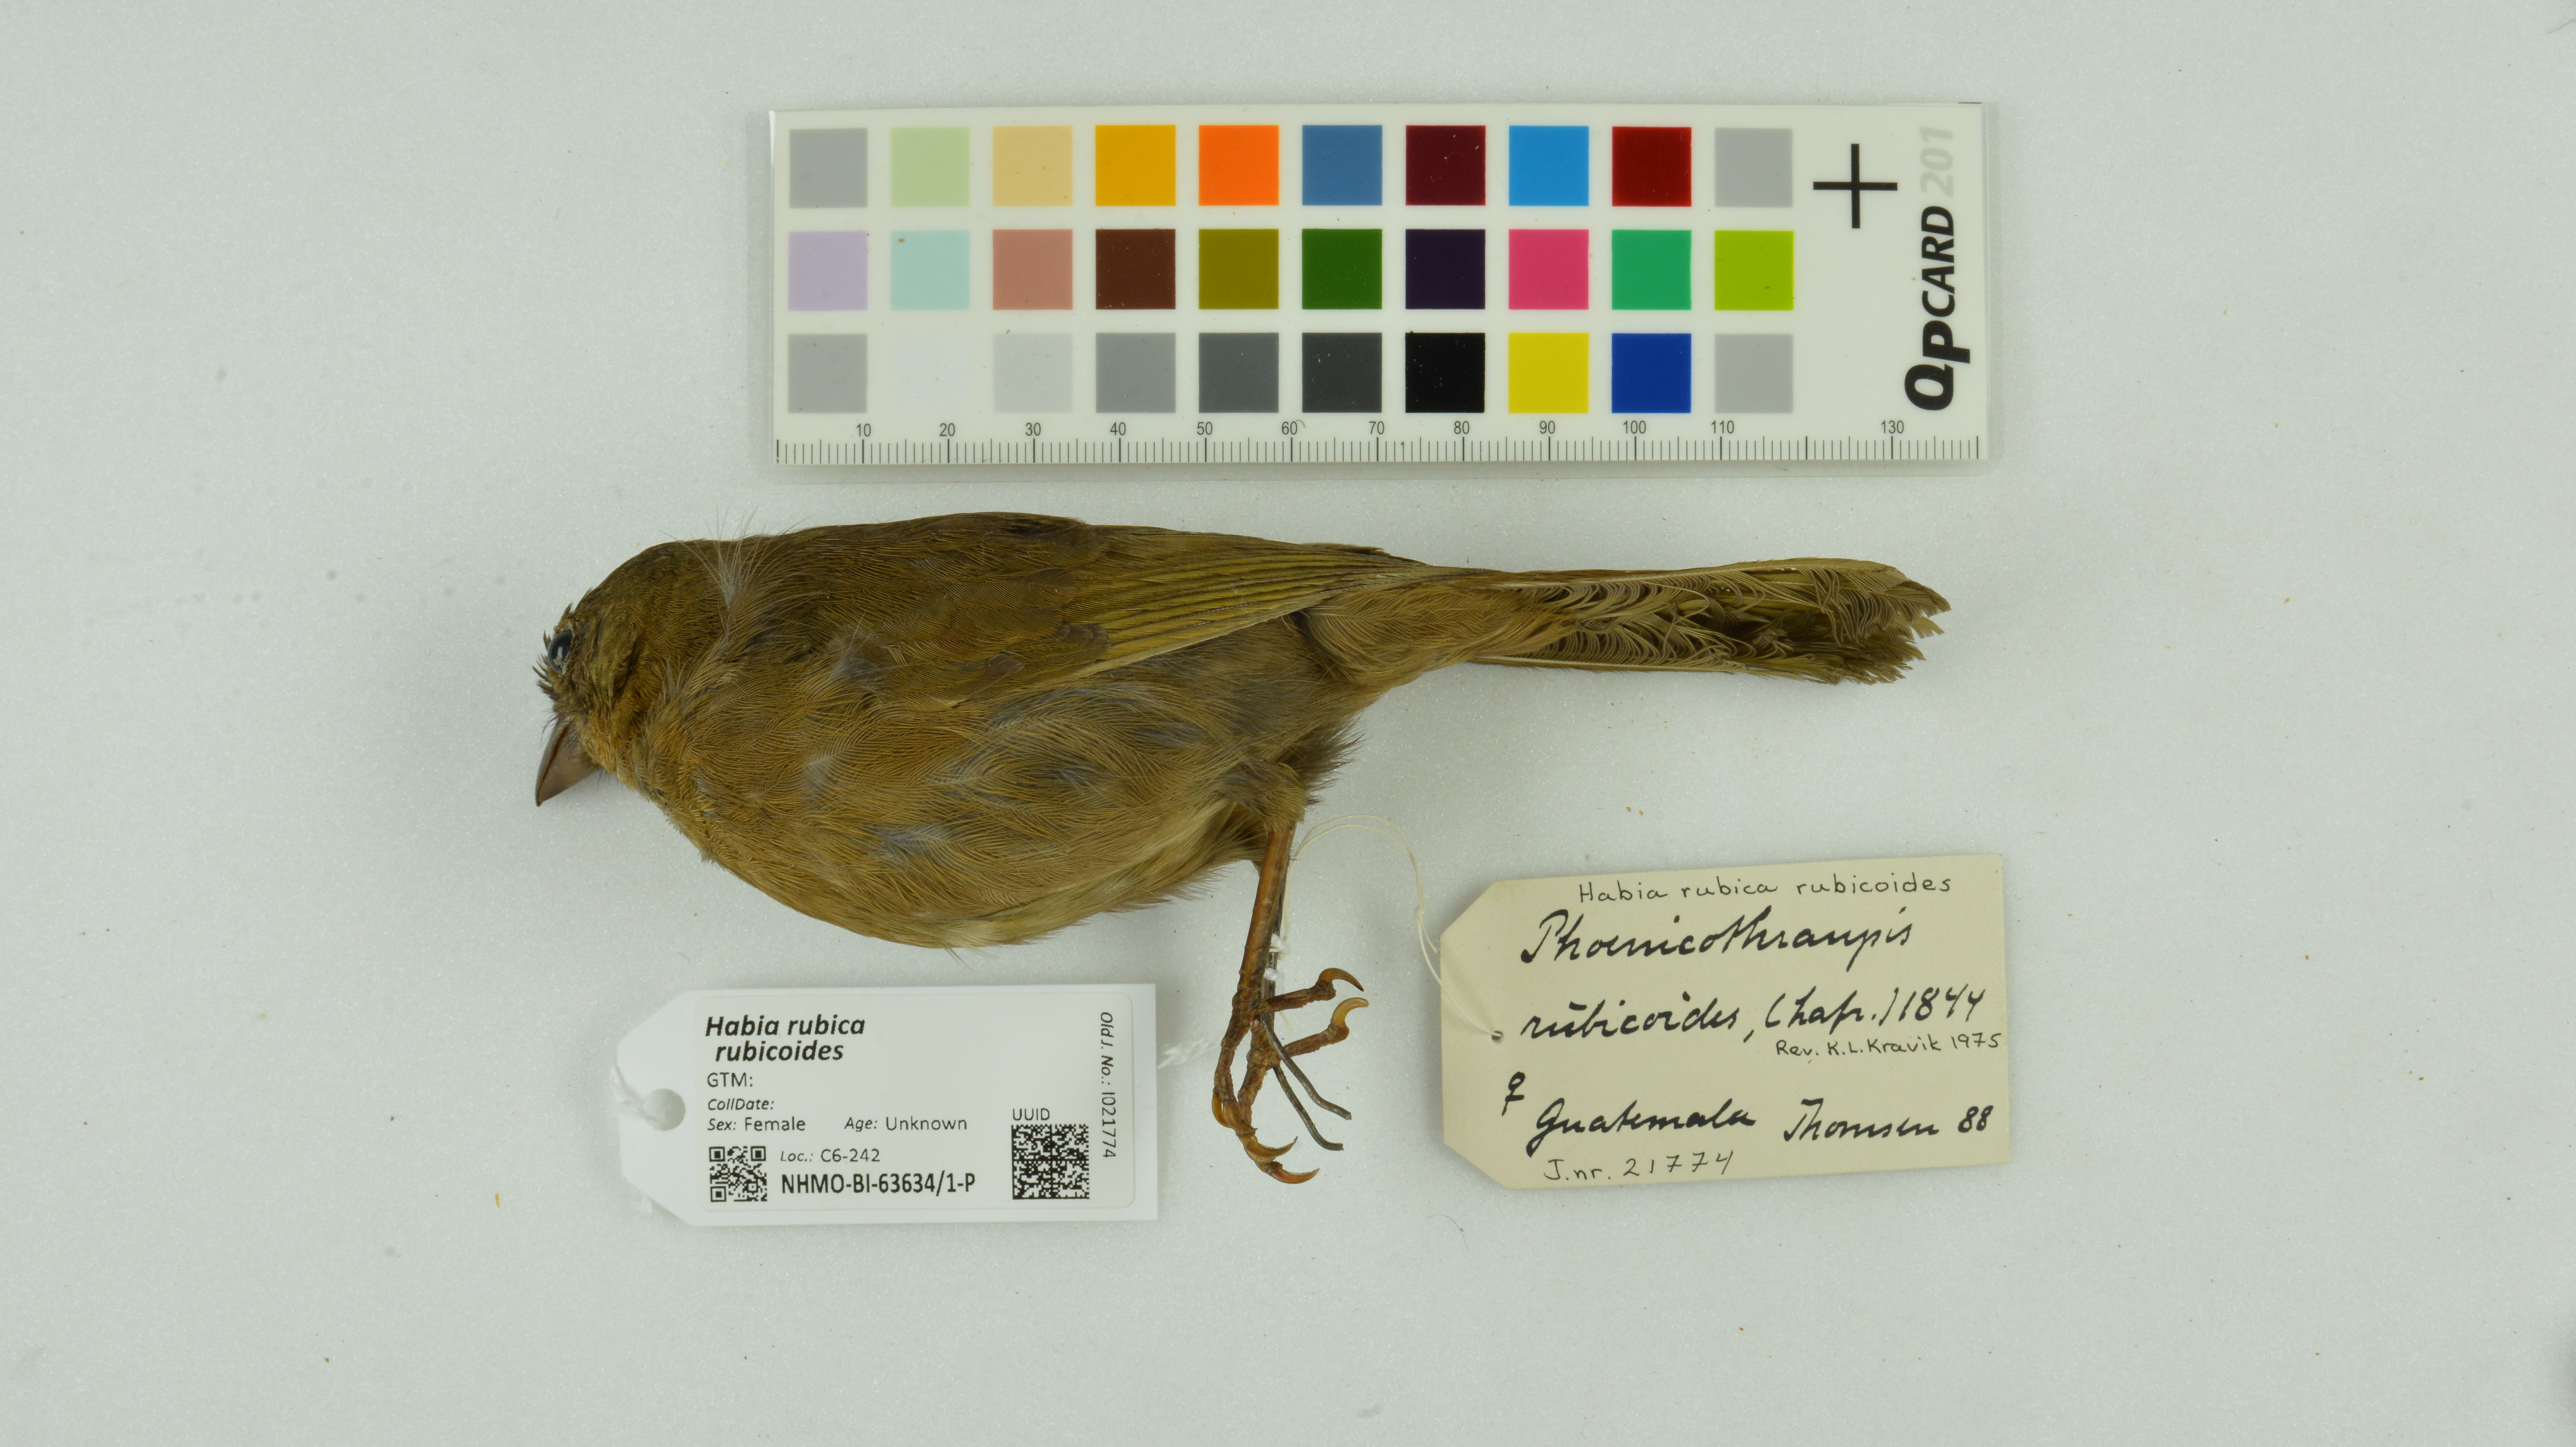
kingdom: Animalia
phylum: Chordata
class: Aves
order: Passeriformes
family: Cardinalidae
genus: Habia
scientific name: Habia rubica
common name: Red-crowned ant-tanager
